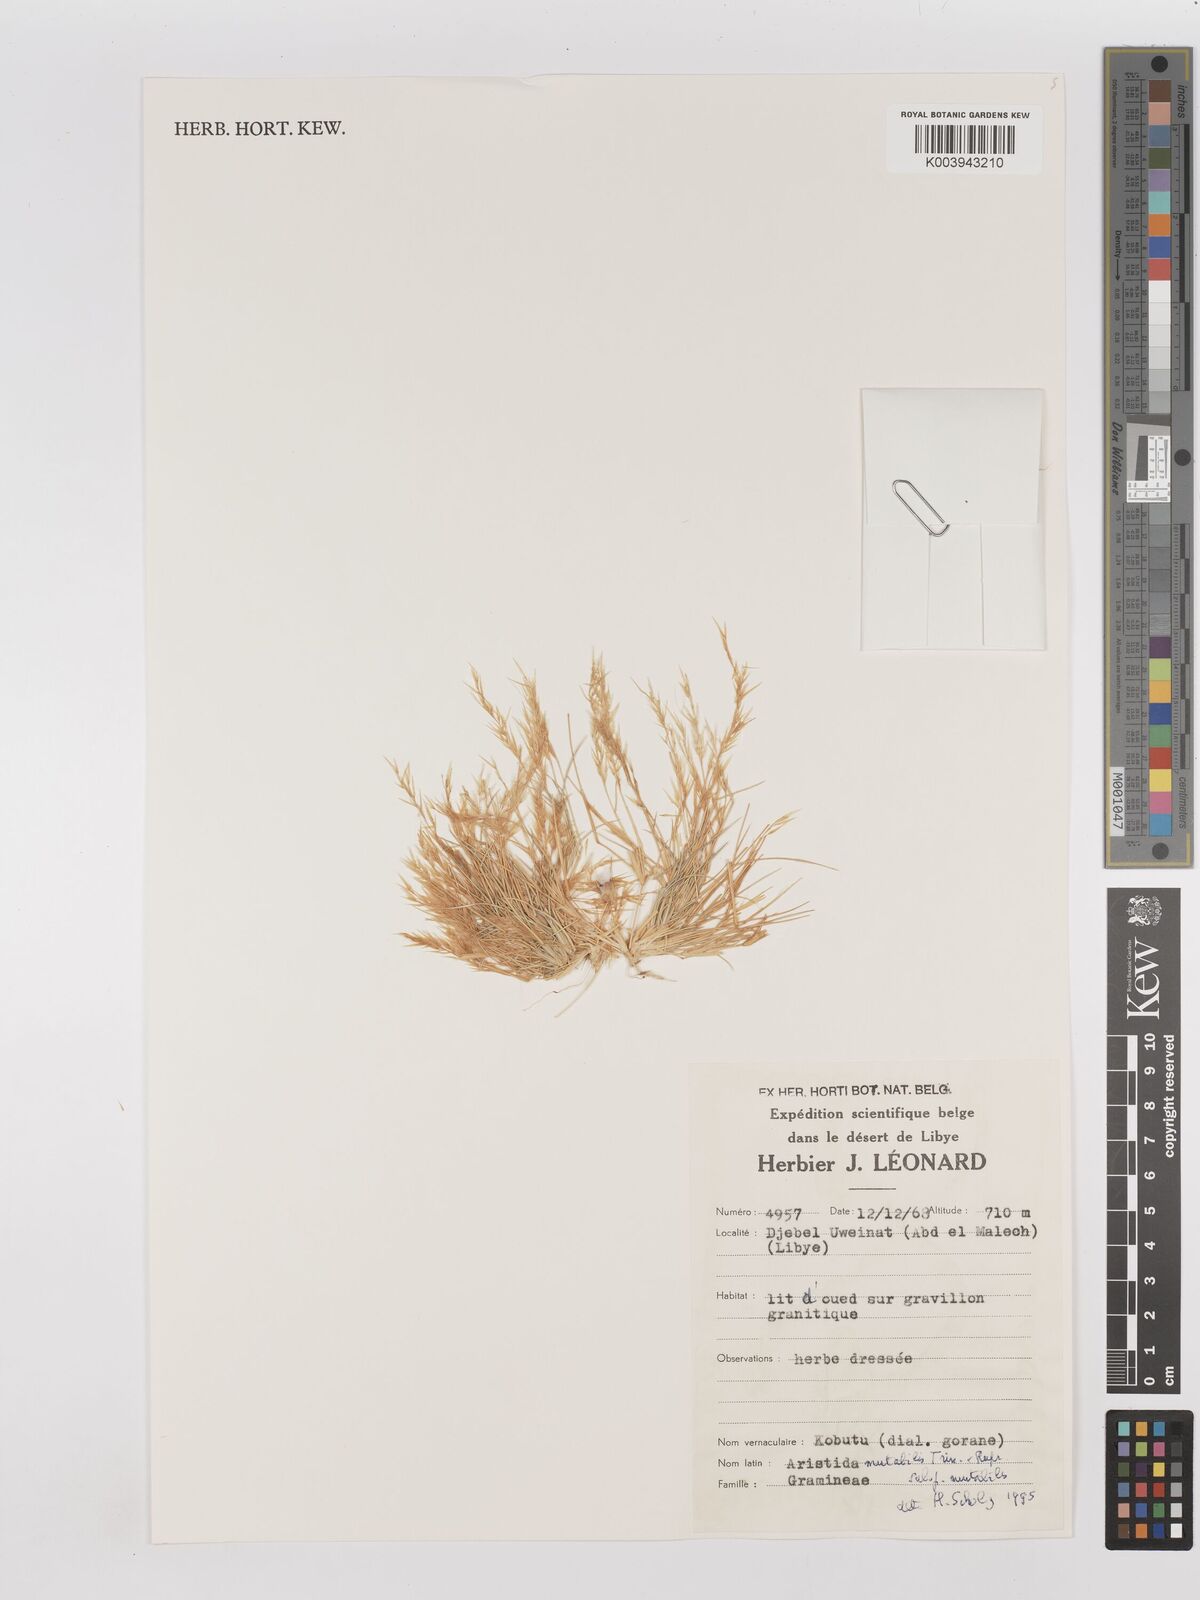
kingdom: Plantae
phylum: Tracheophyta
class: Liliopsida
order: Poales
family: Poaceae
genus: Aristida
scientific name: Aristida mutabilis
